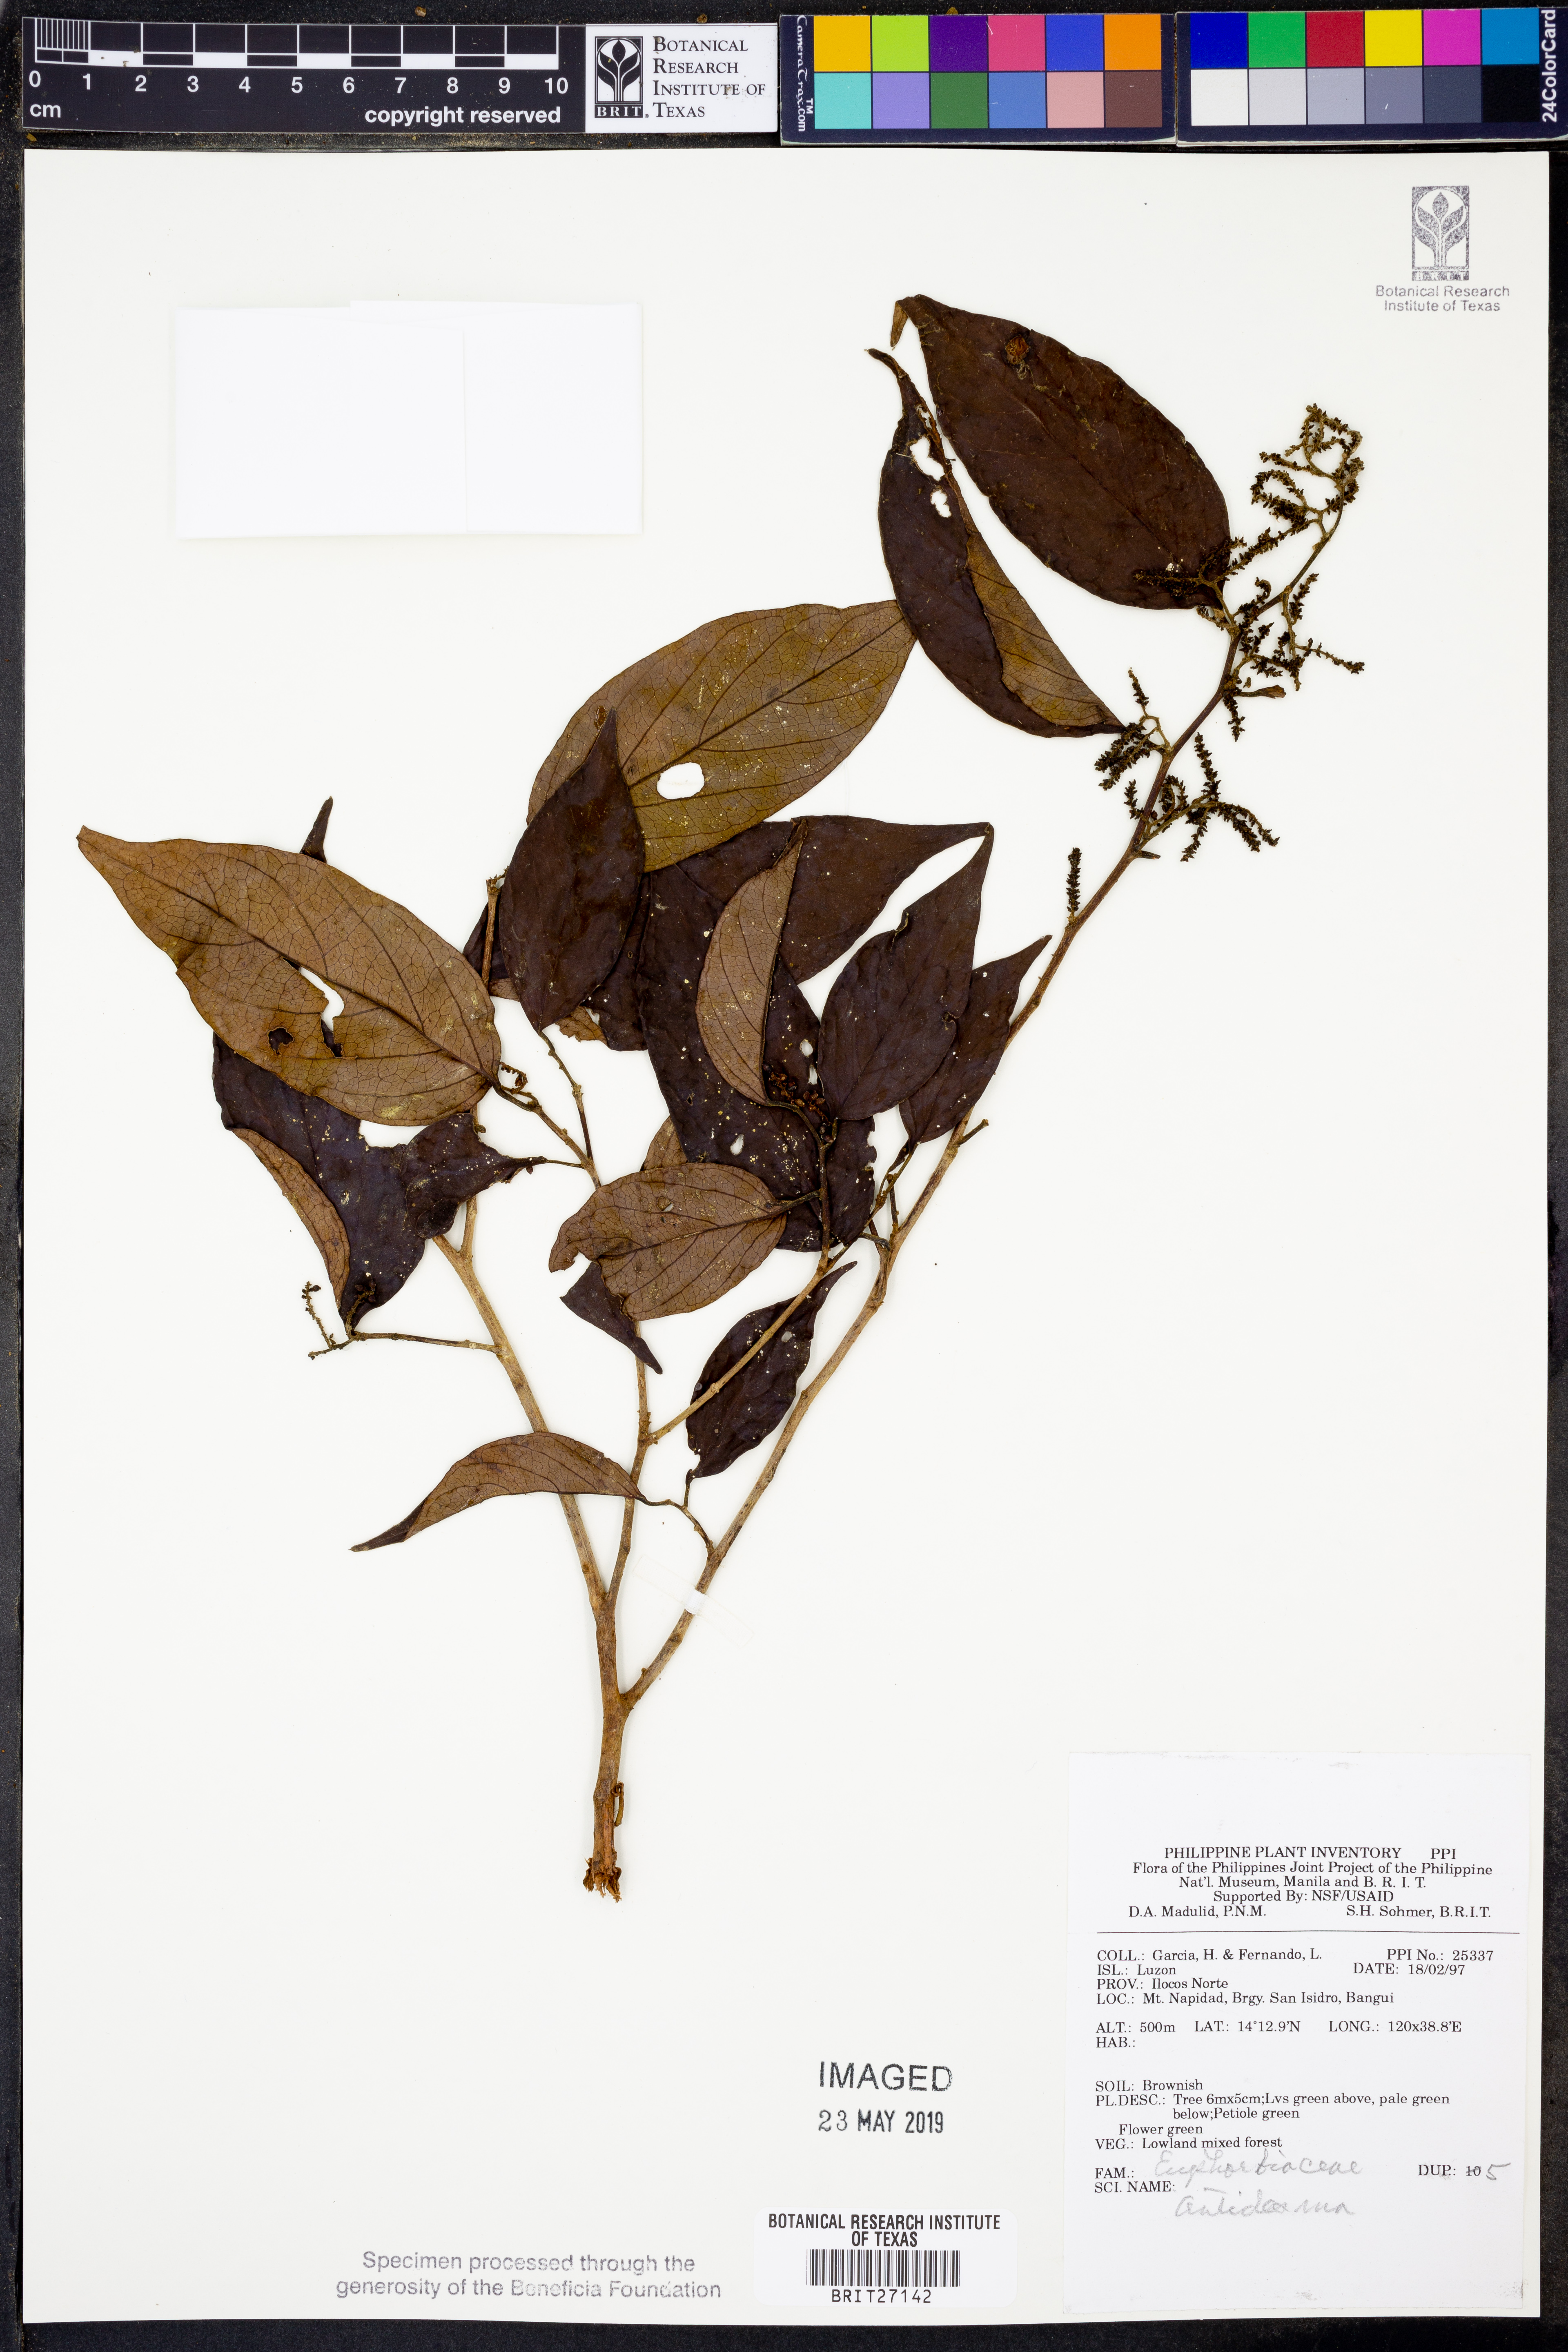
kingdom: Plantae
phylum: Tracheophyta
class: Magnoliopsida
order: Malpighiales
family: Phyllanthaceae
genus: Antidesma
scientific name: Antidesma
